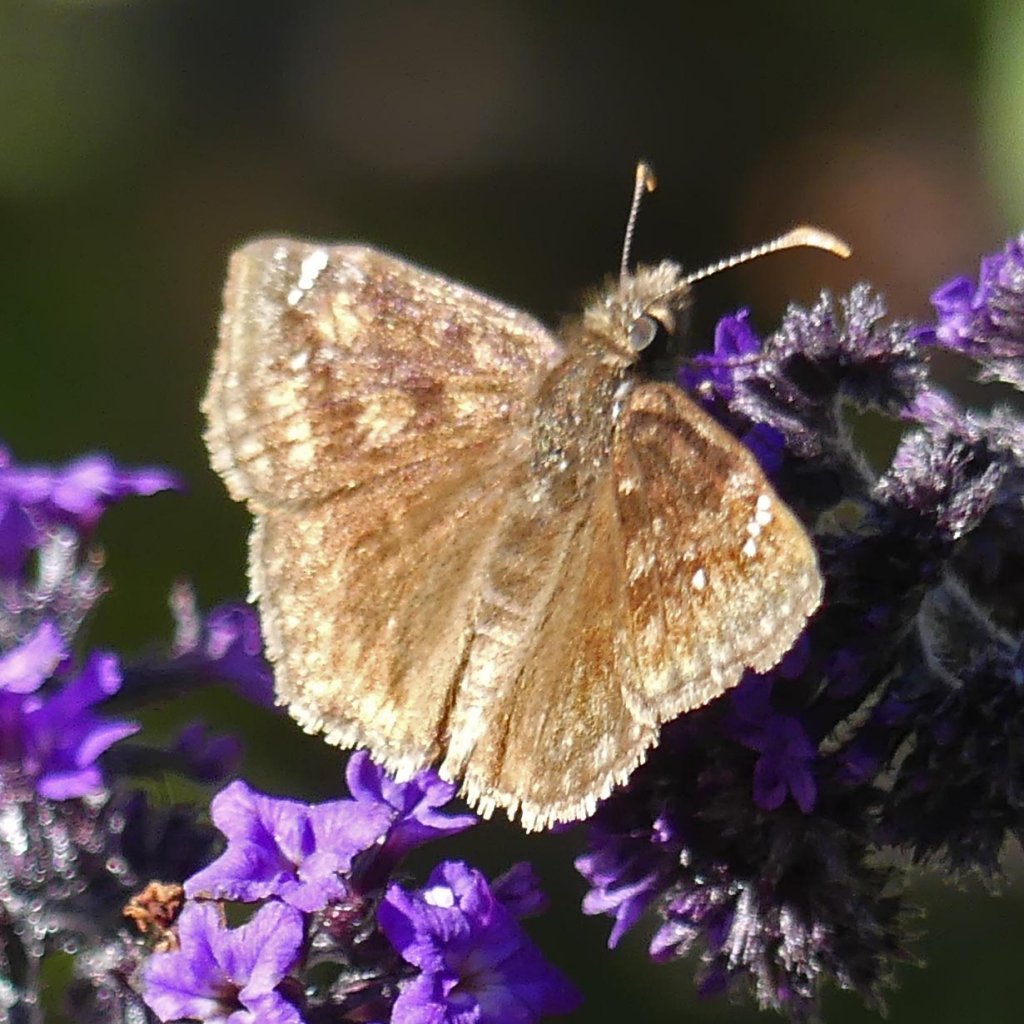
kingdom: Animalia
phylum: Arthropoda
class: Insecta
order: Lepidoptera
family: Hesperiidae
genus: Gesta
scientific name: Gesta
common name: Wild Indigo Duskywing
